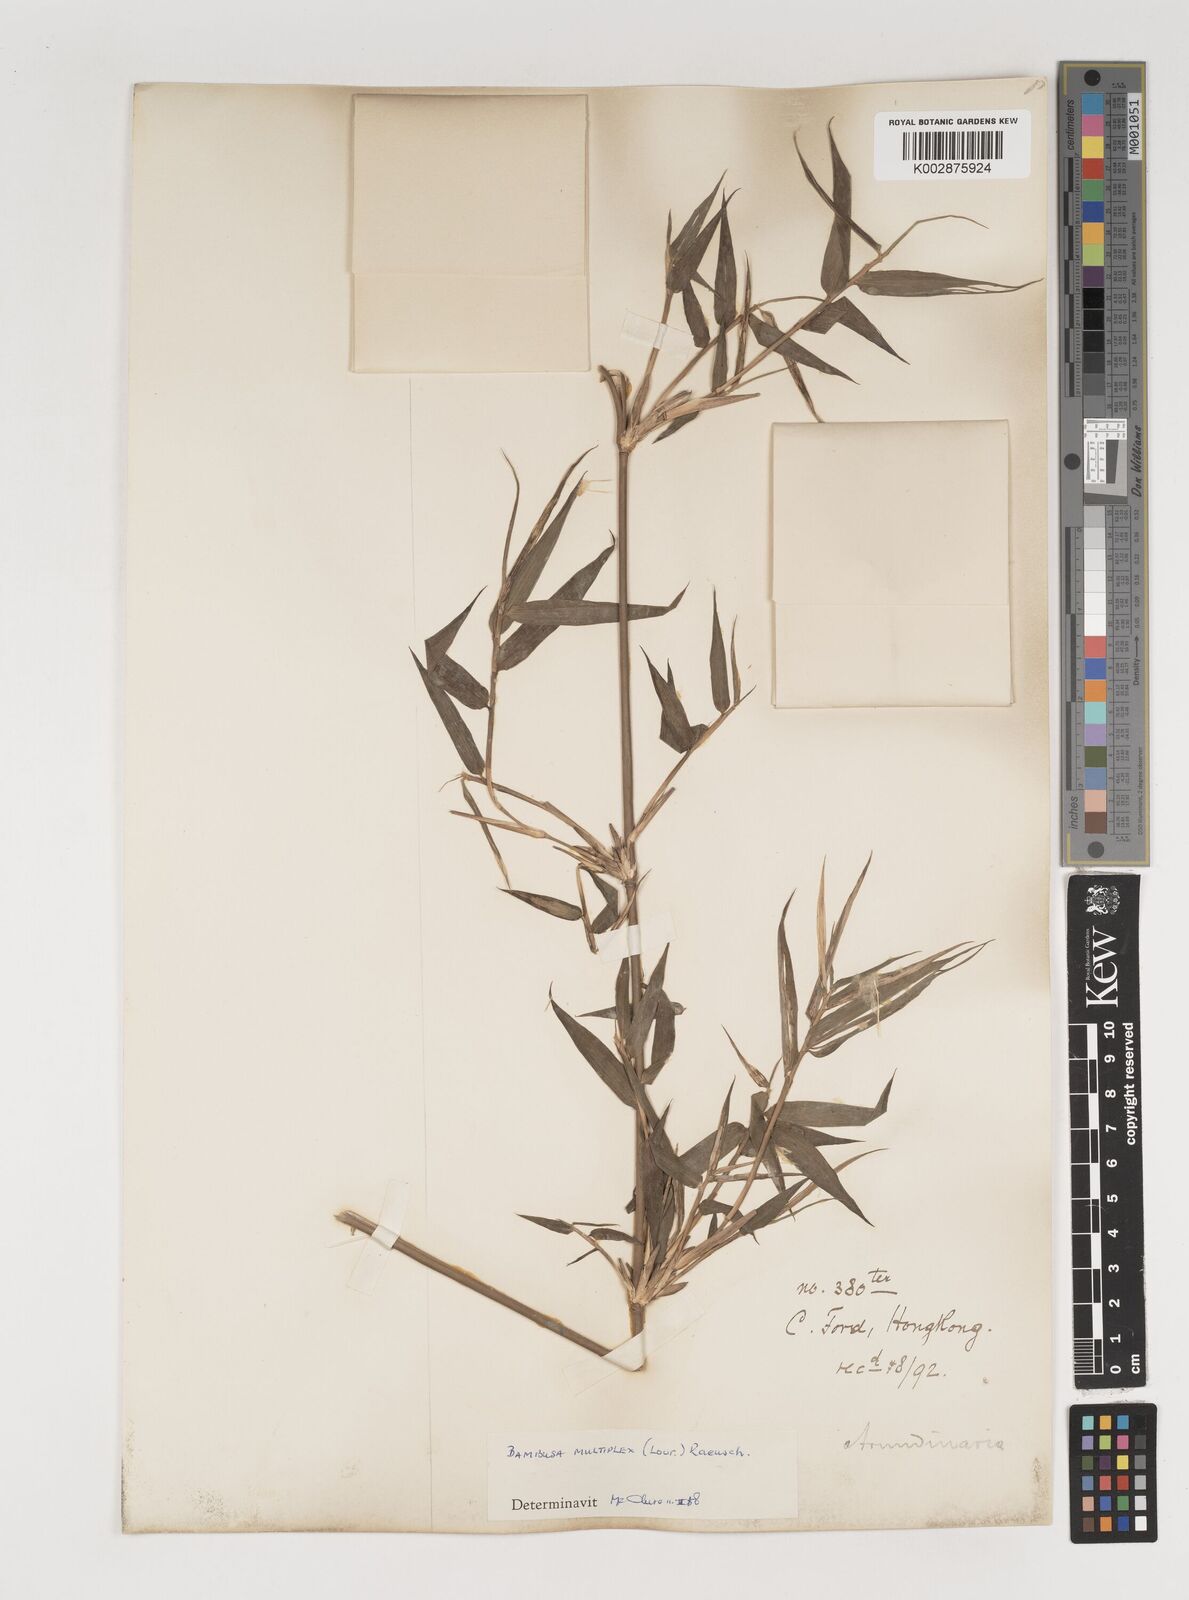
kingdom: Plantae
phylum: Tracheophyta
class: Liliopsida
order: Poales
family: Poaceae
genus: Bambusa
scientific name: Bambusa multiplex
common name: Hedge bamboo
